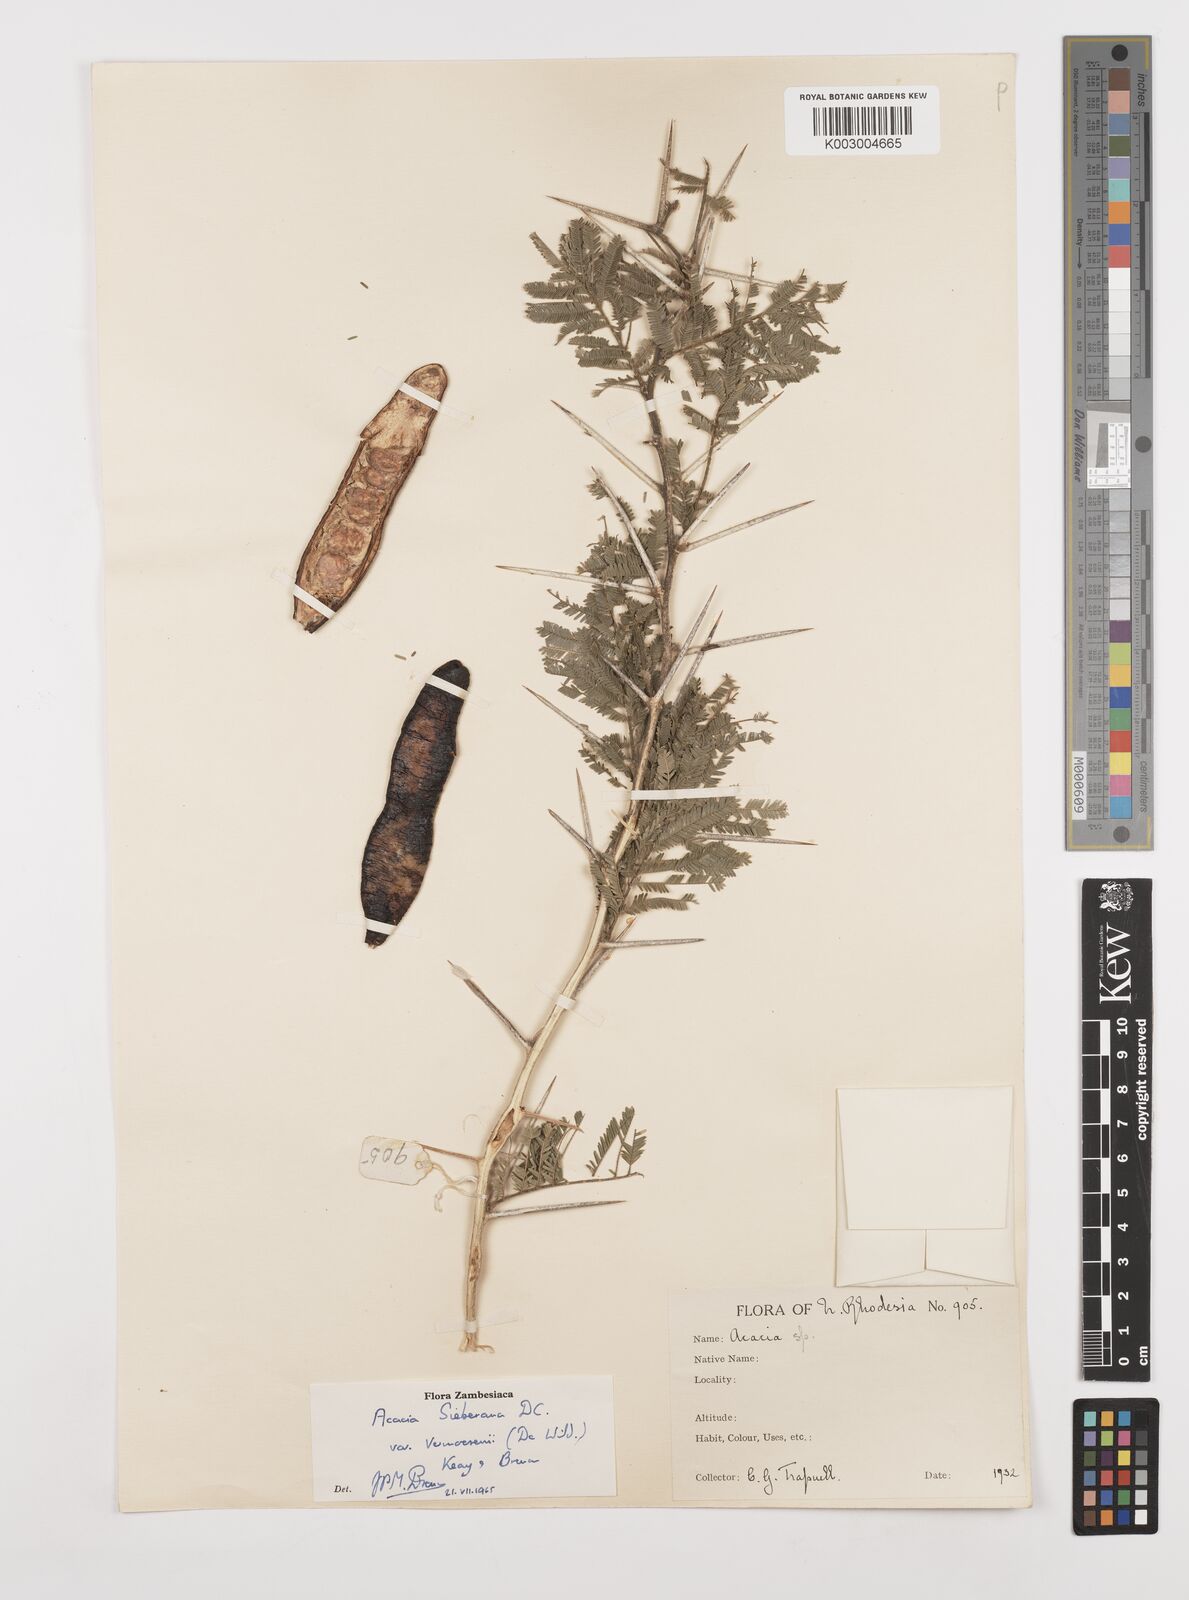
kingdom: Plantae
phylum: Tracheophyta
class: Magnoliopsida
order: Fabales
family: Fabaceae
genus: Vachellia
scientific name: Vachellia sieberiana
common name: Flat-topped thorn
